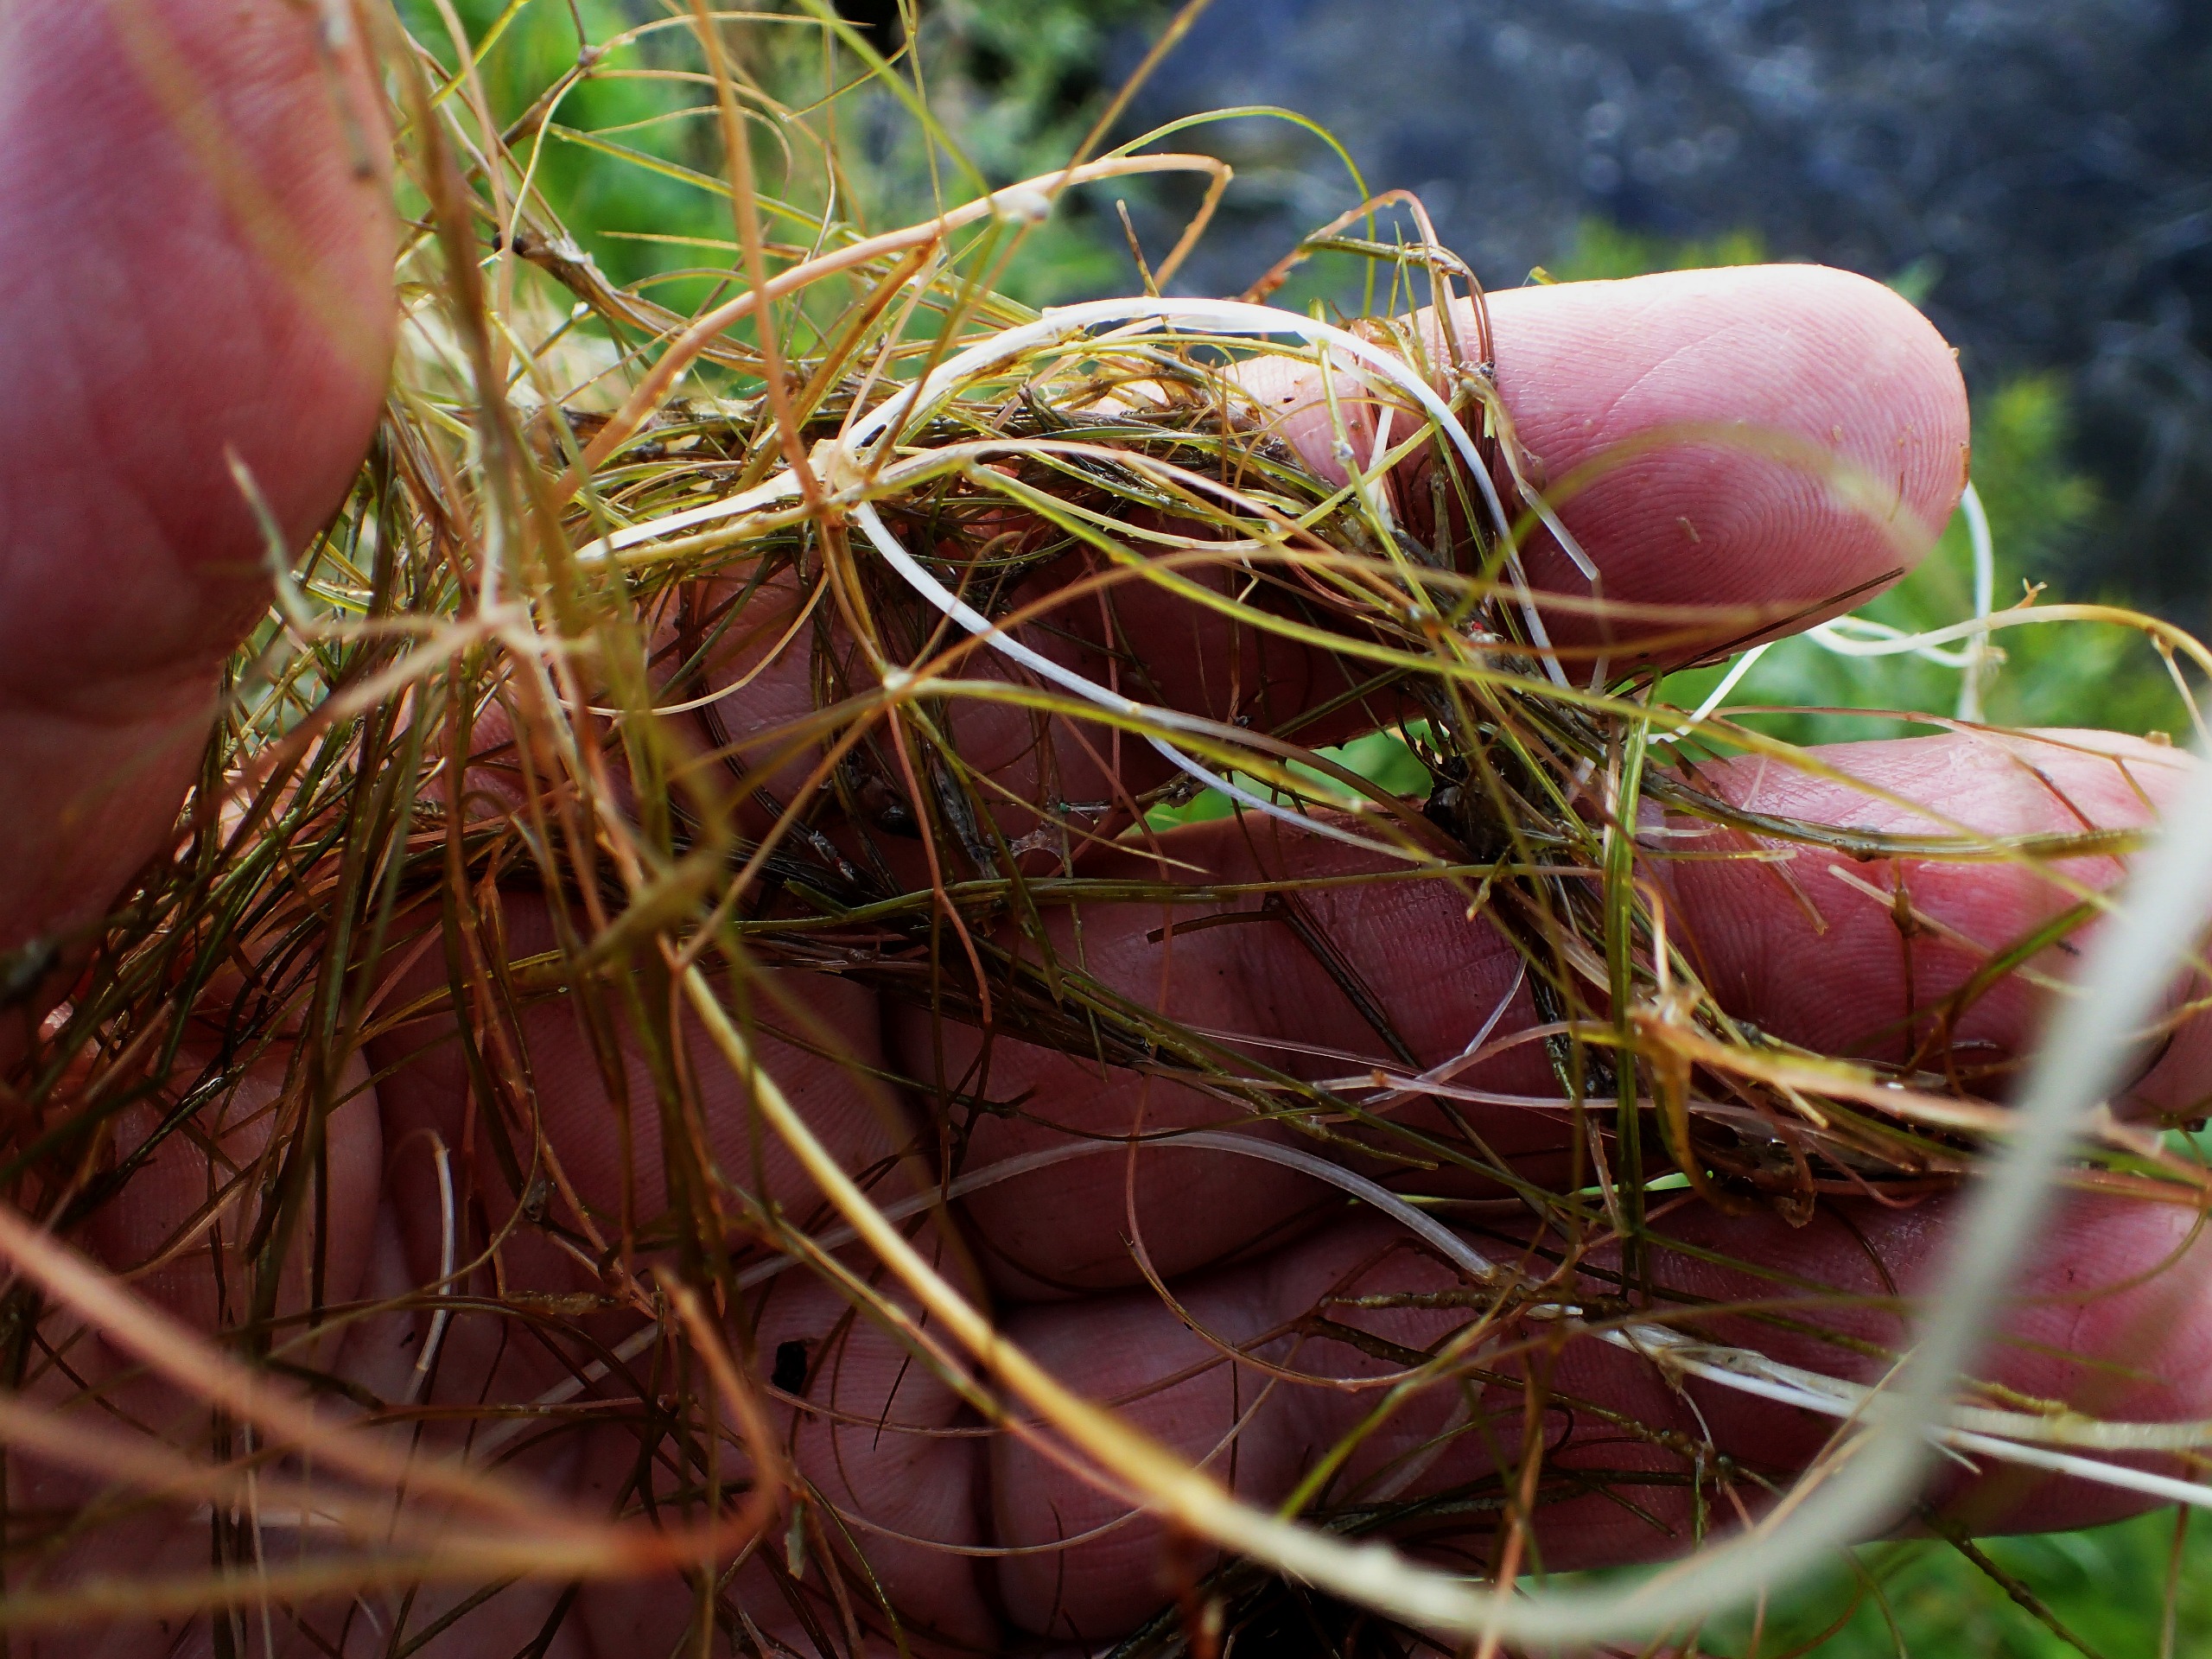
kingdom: Plantae
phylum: Tracheophyta
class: Liliopsida
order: Alismatales
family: Potamogetonaceae
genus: Stuckenia
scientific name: Stuckenia pectinata
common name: Børstebladet vandaks
